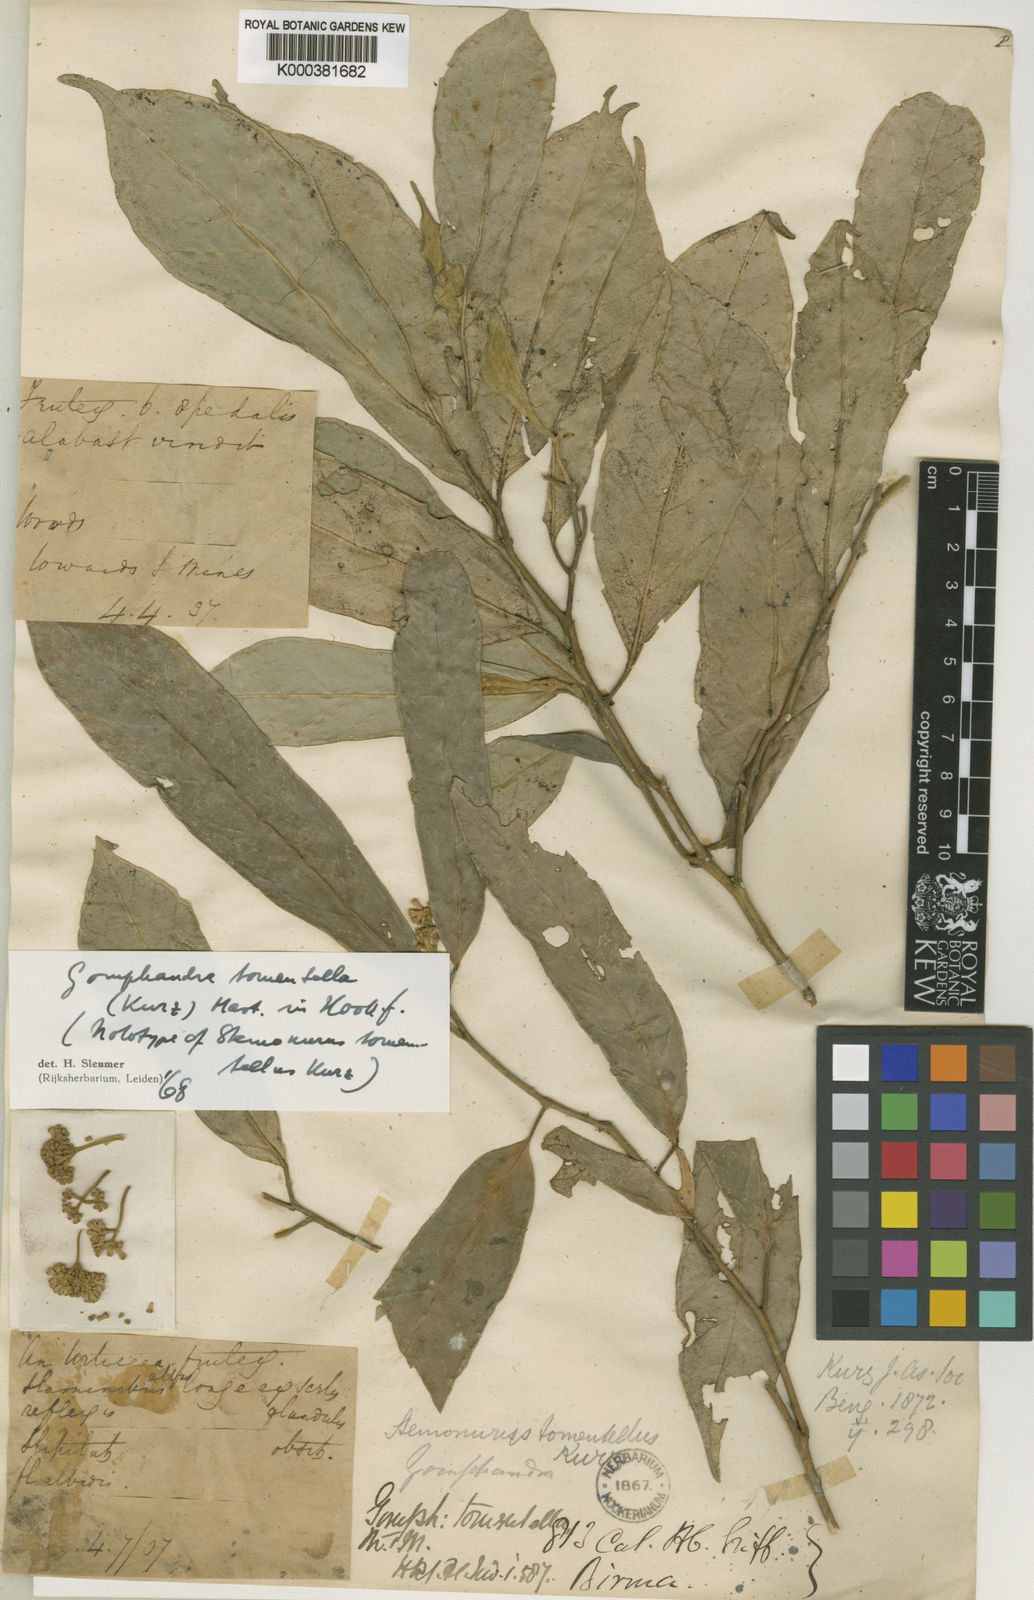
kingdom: Plantae
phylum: Tracheophyta
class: Magnoliopsida
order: Cardiopteridales
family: Stemonuraceae
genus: Gomphandra
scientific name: Gomphandra tomentella
